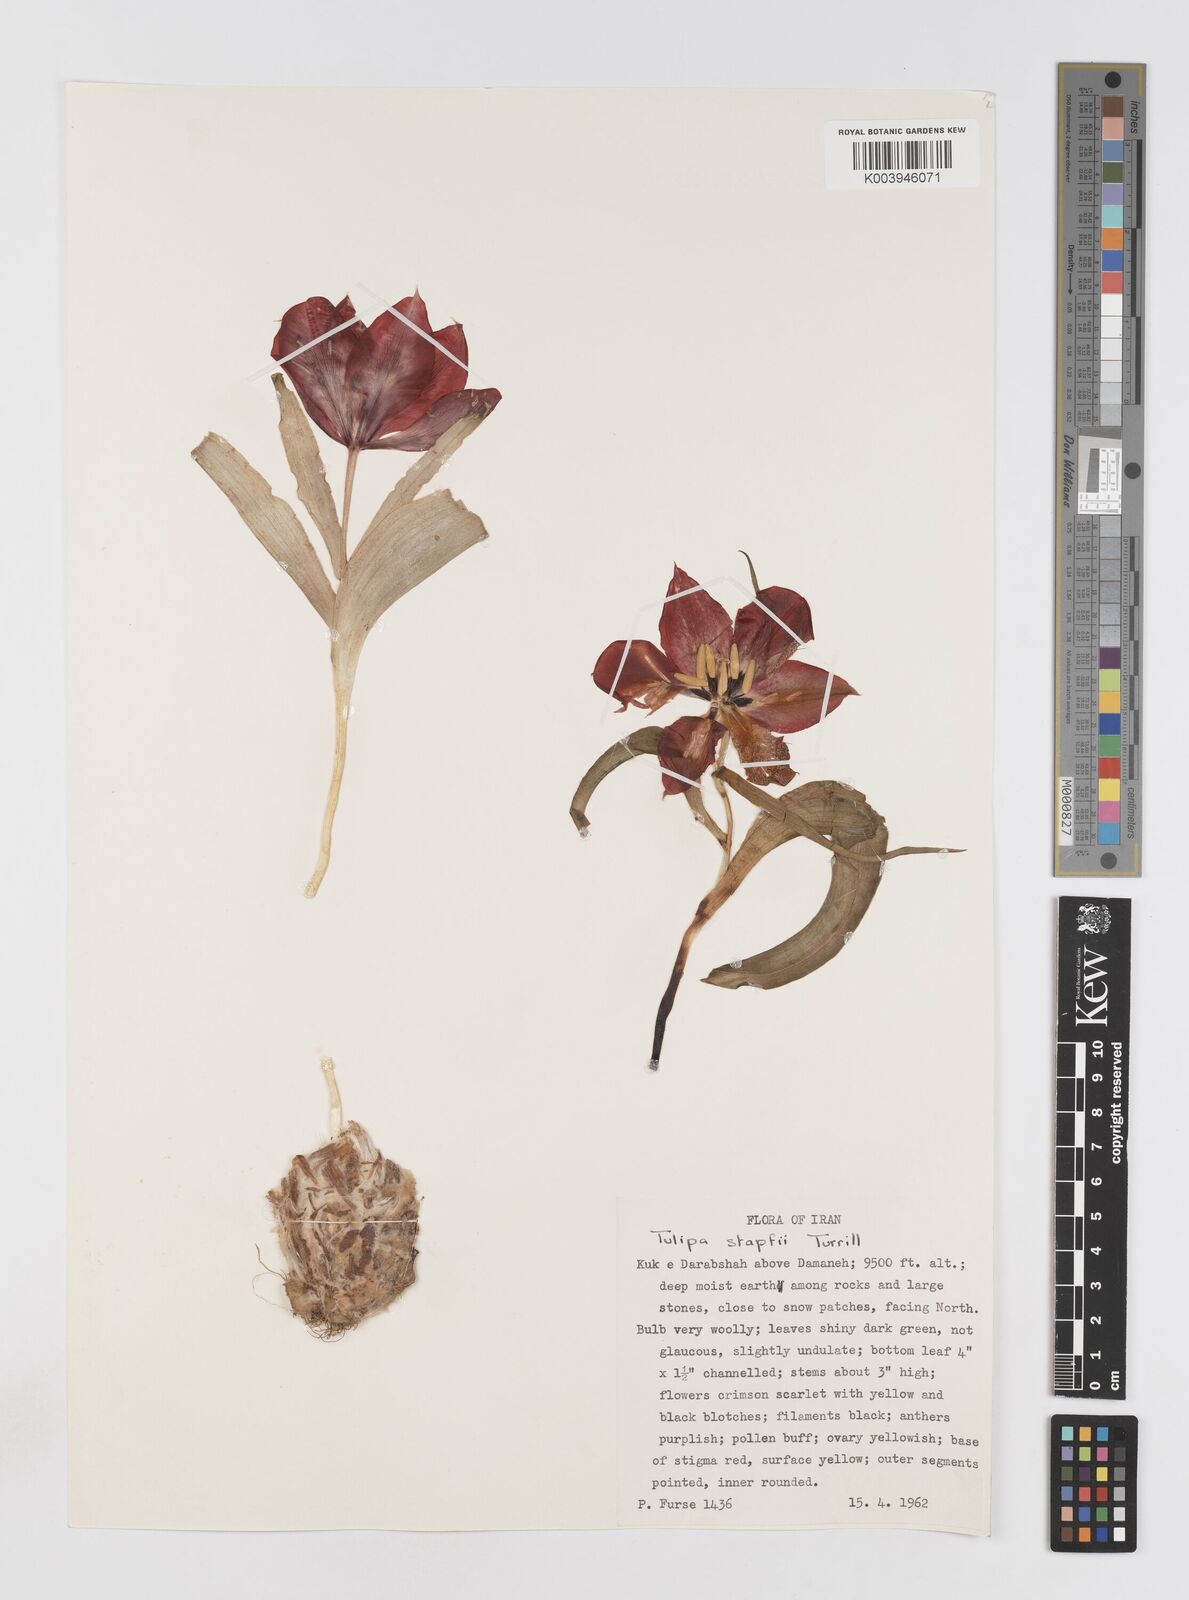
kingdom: Plantae
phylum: Tracheophyta
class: Liliopsida
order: Liliales
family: Liliaceae
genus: Tulipa
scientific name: Tulipa systola
